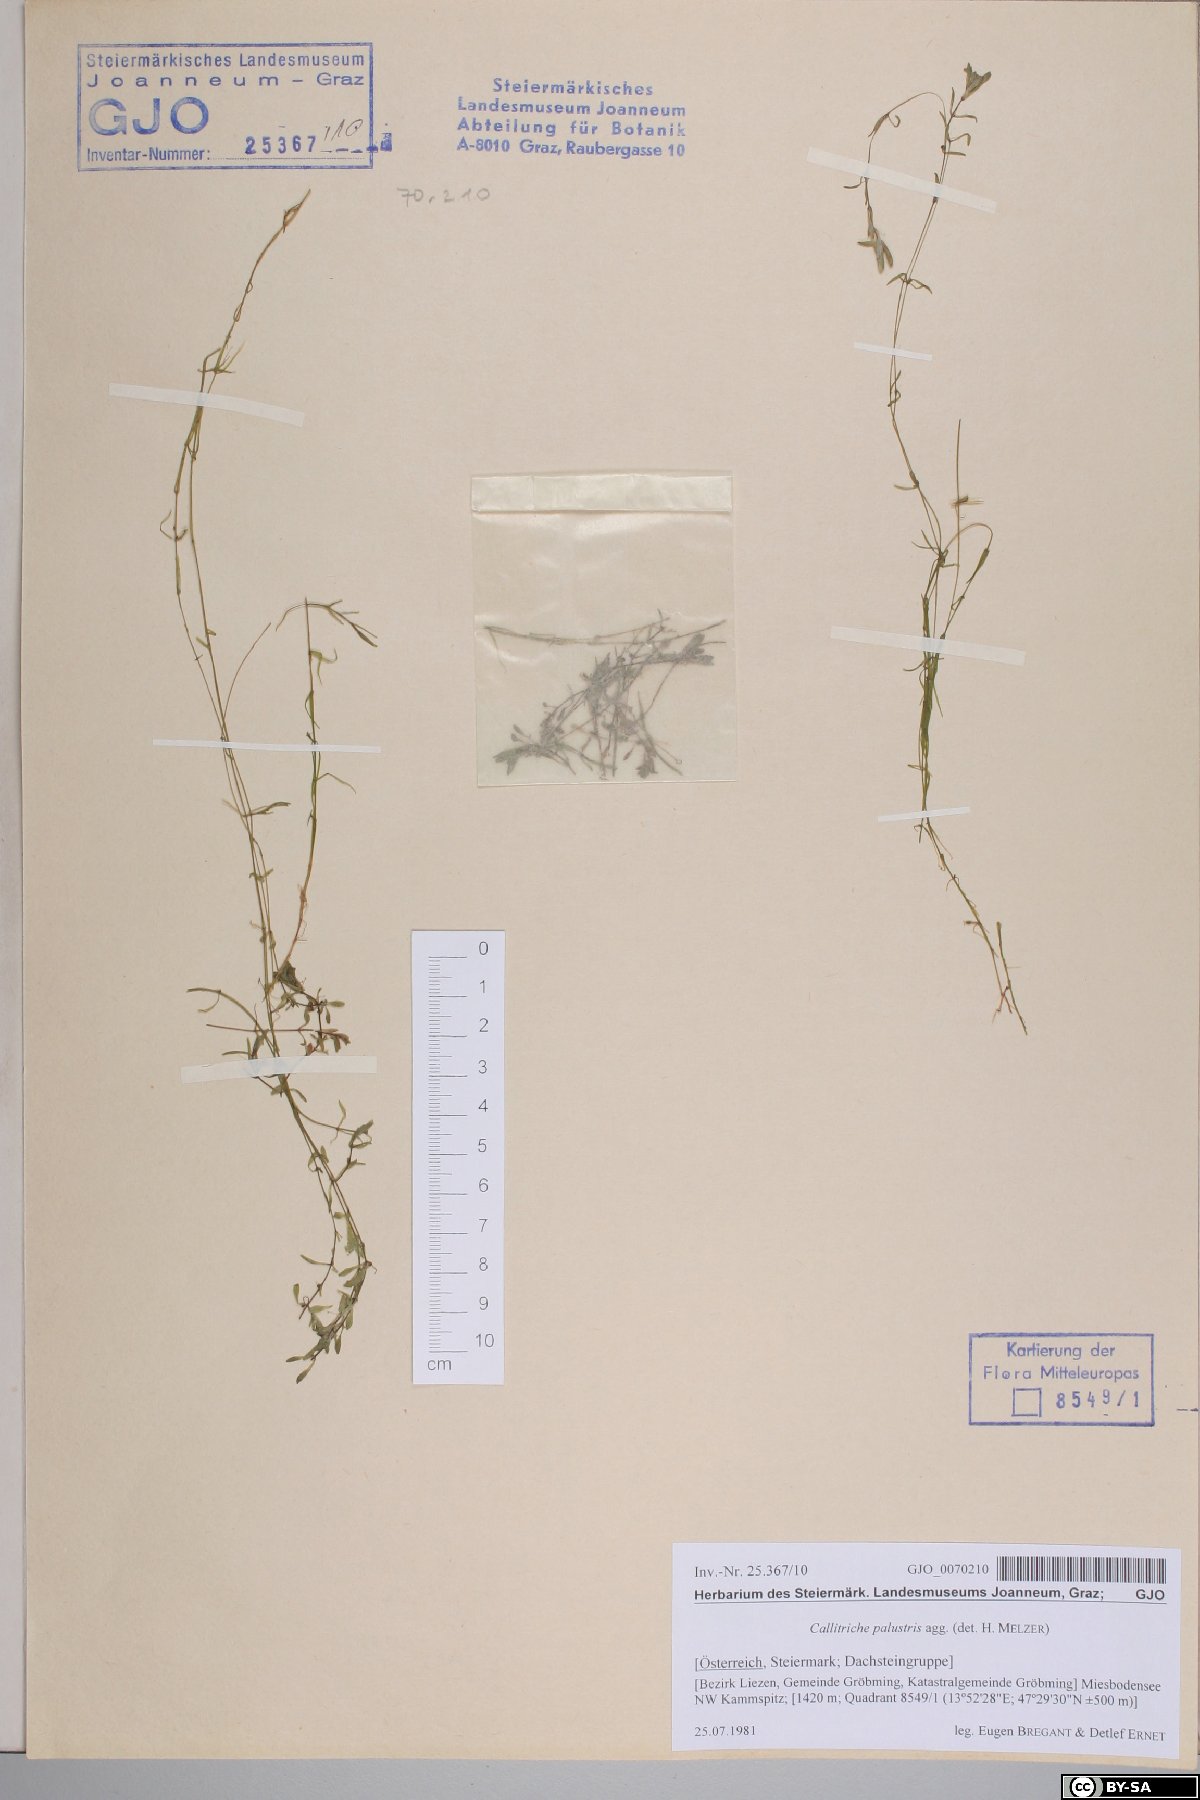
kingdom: Plantae
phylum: Tracheophyta
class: Magnoliopsida
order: Lamiales
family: Plantaginaceae
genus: Callitriche
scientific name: Callitriche palustris
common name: Spring water-starwort
